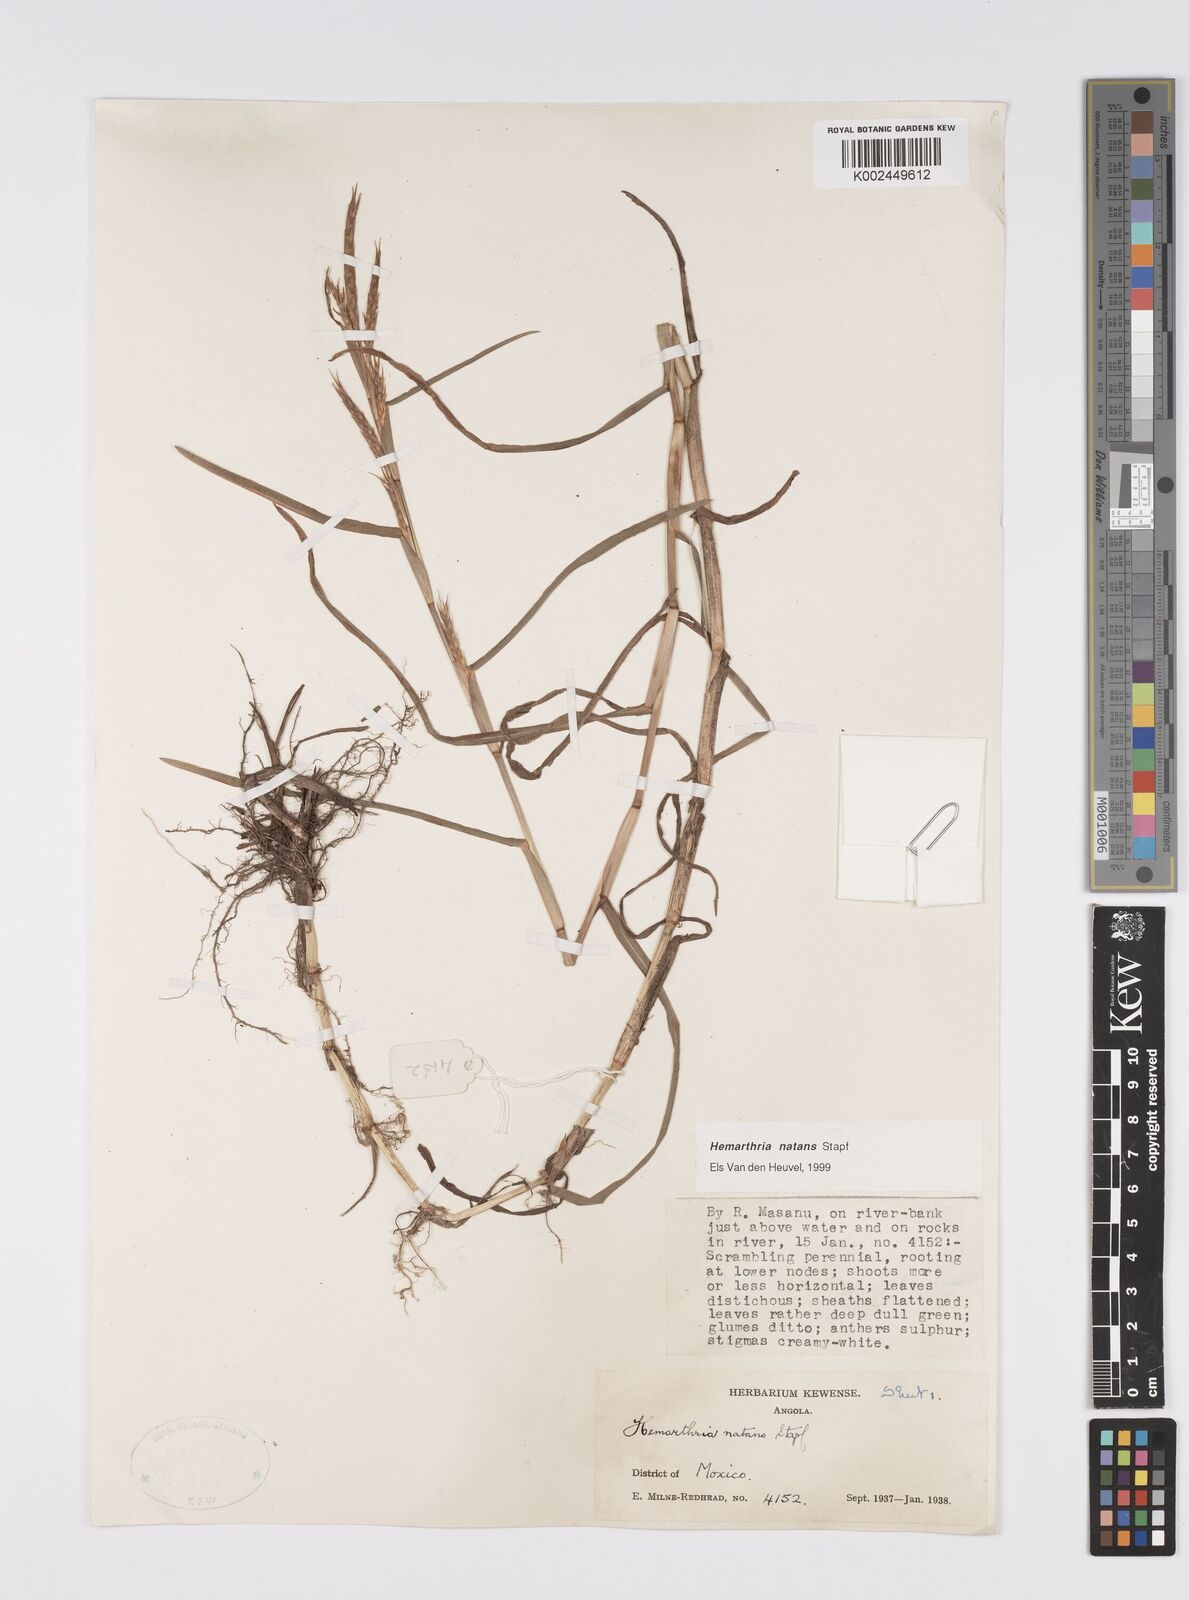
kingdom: Plantae
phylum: Tracheophyta
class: Liliopsida
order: Poales
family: Poaceae
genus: Hemarthria
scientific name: Hemarthria natans
